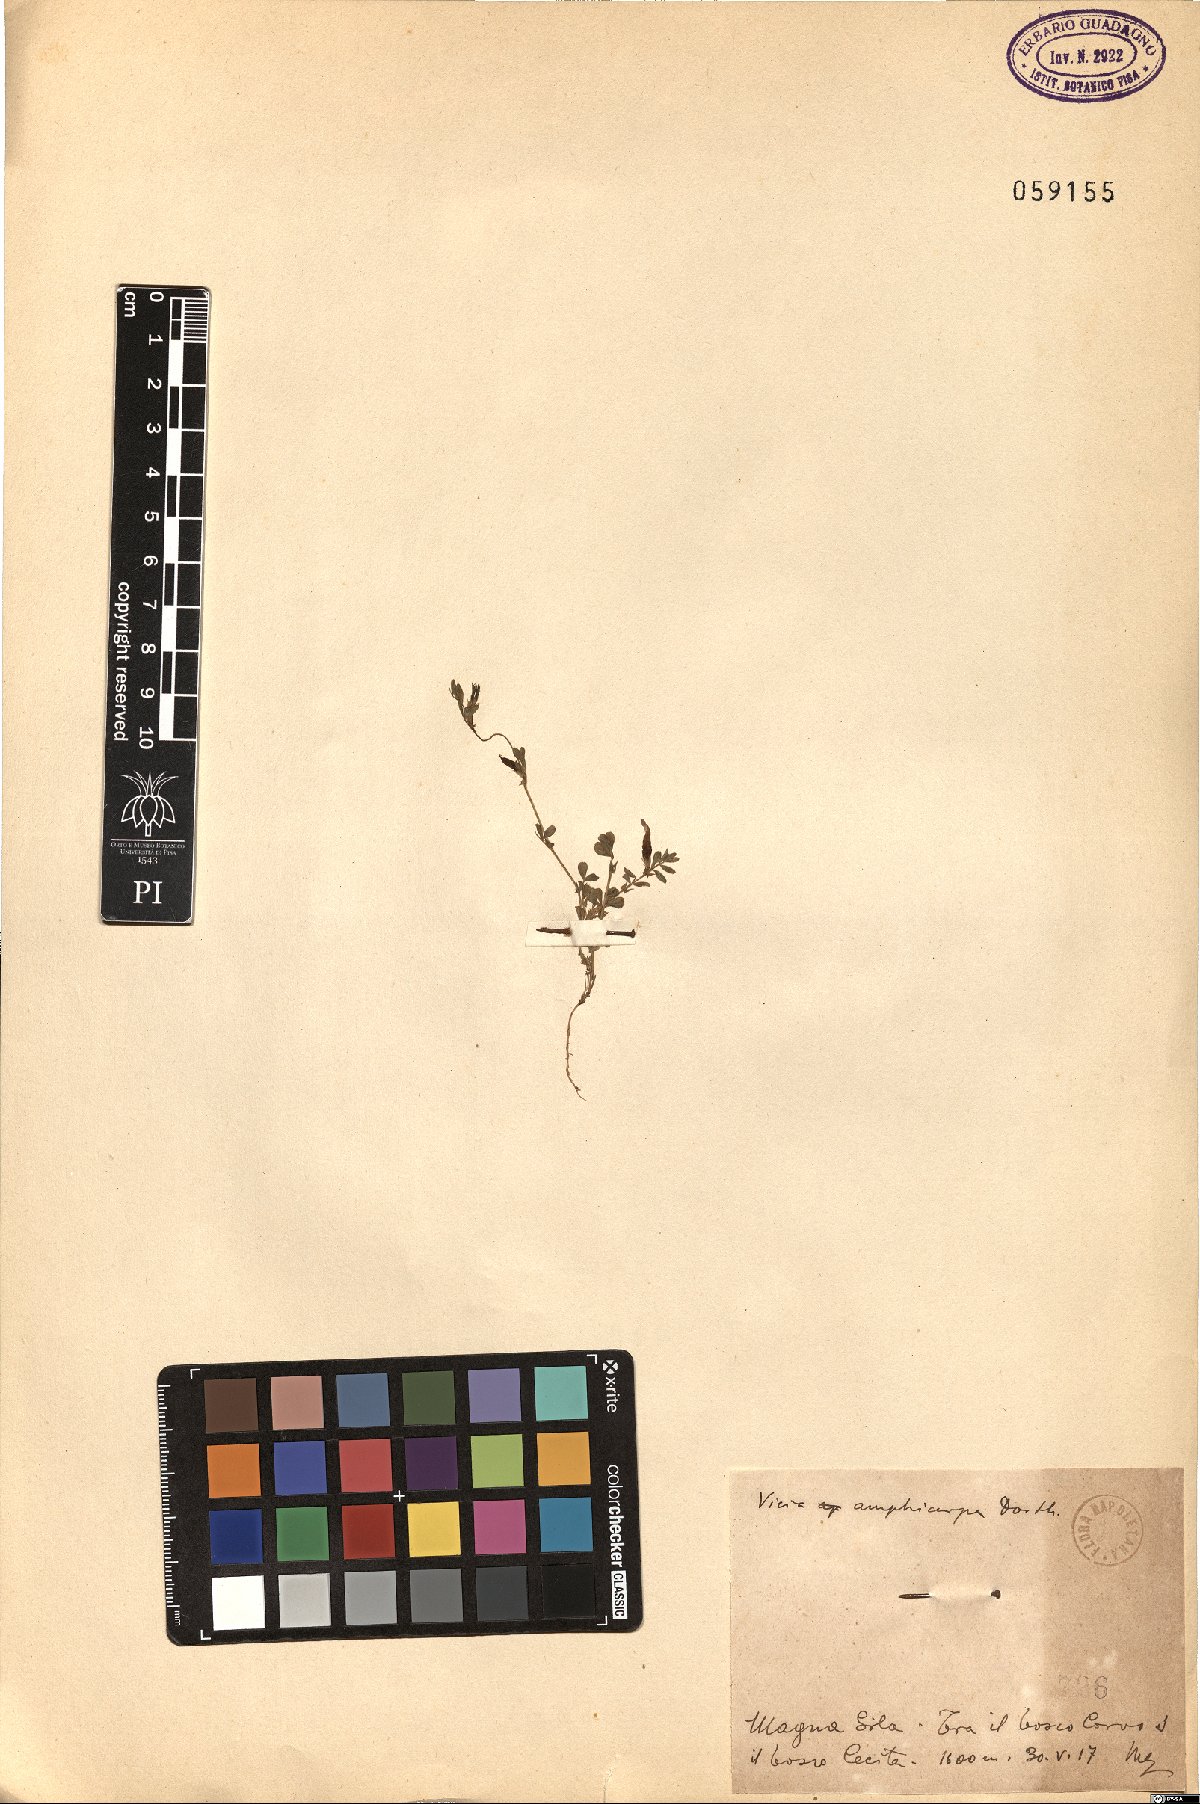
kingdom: Plantae
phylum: Tracheophyta
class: Magnoliopsida
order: Fabales
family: Fabaceae
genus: Vicia
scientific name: Vicia sativa
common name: Garden vetch
